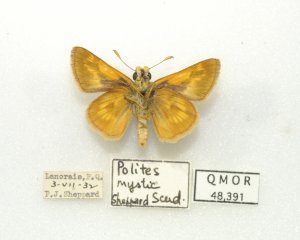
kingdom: Animalia
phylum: Arthropoda
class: Insecta
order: Lepidoptera
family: Hesperiidae
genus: Polites
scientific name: Polites
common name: Long Dash Skipper
